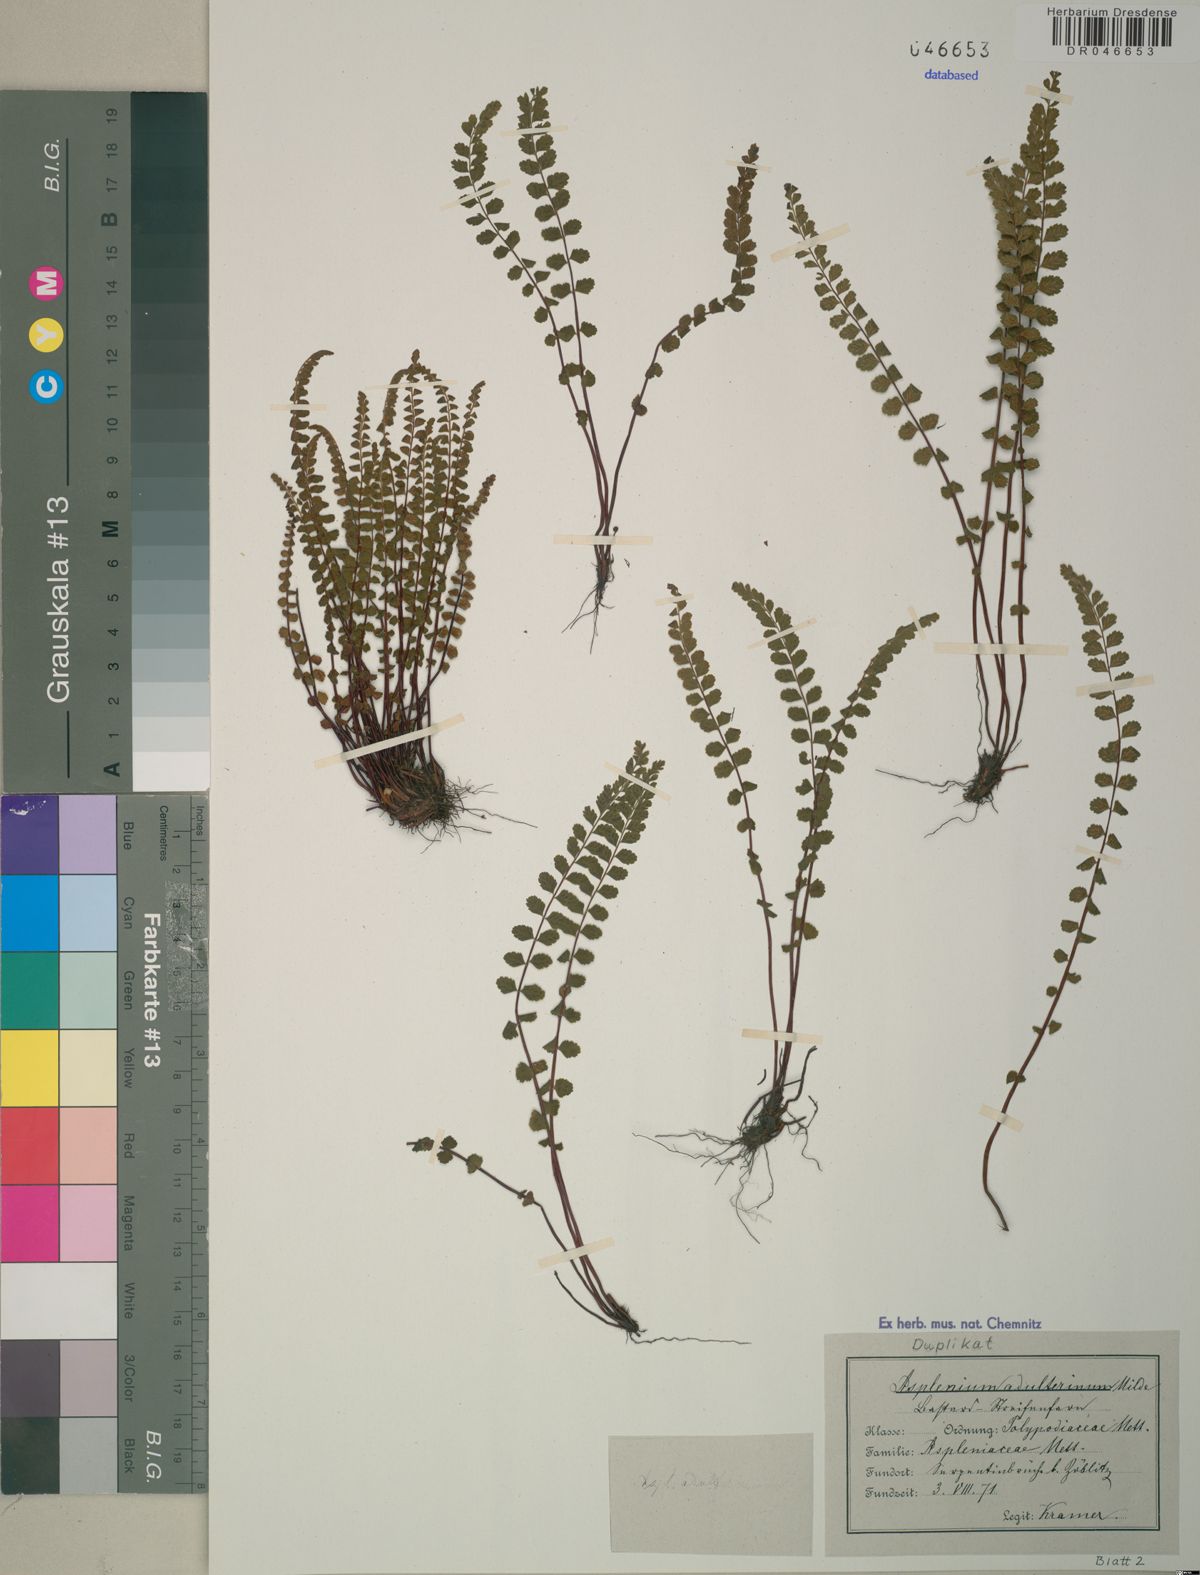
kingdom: Plantae
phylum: Tracheophyta
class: Polypodiopsida
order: Polypodiales
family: Aspleniaceae
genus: Asplenium
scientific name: Asplenium adulterinum
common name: Adulterated spleenwort
